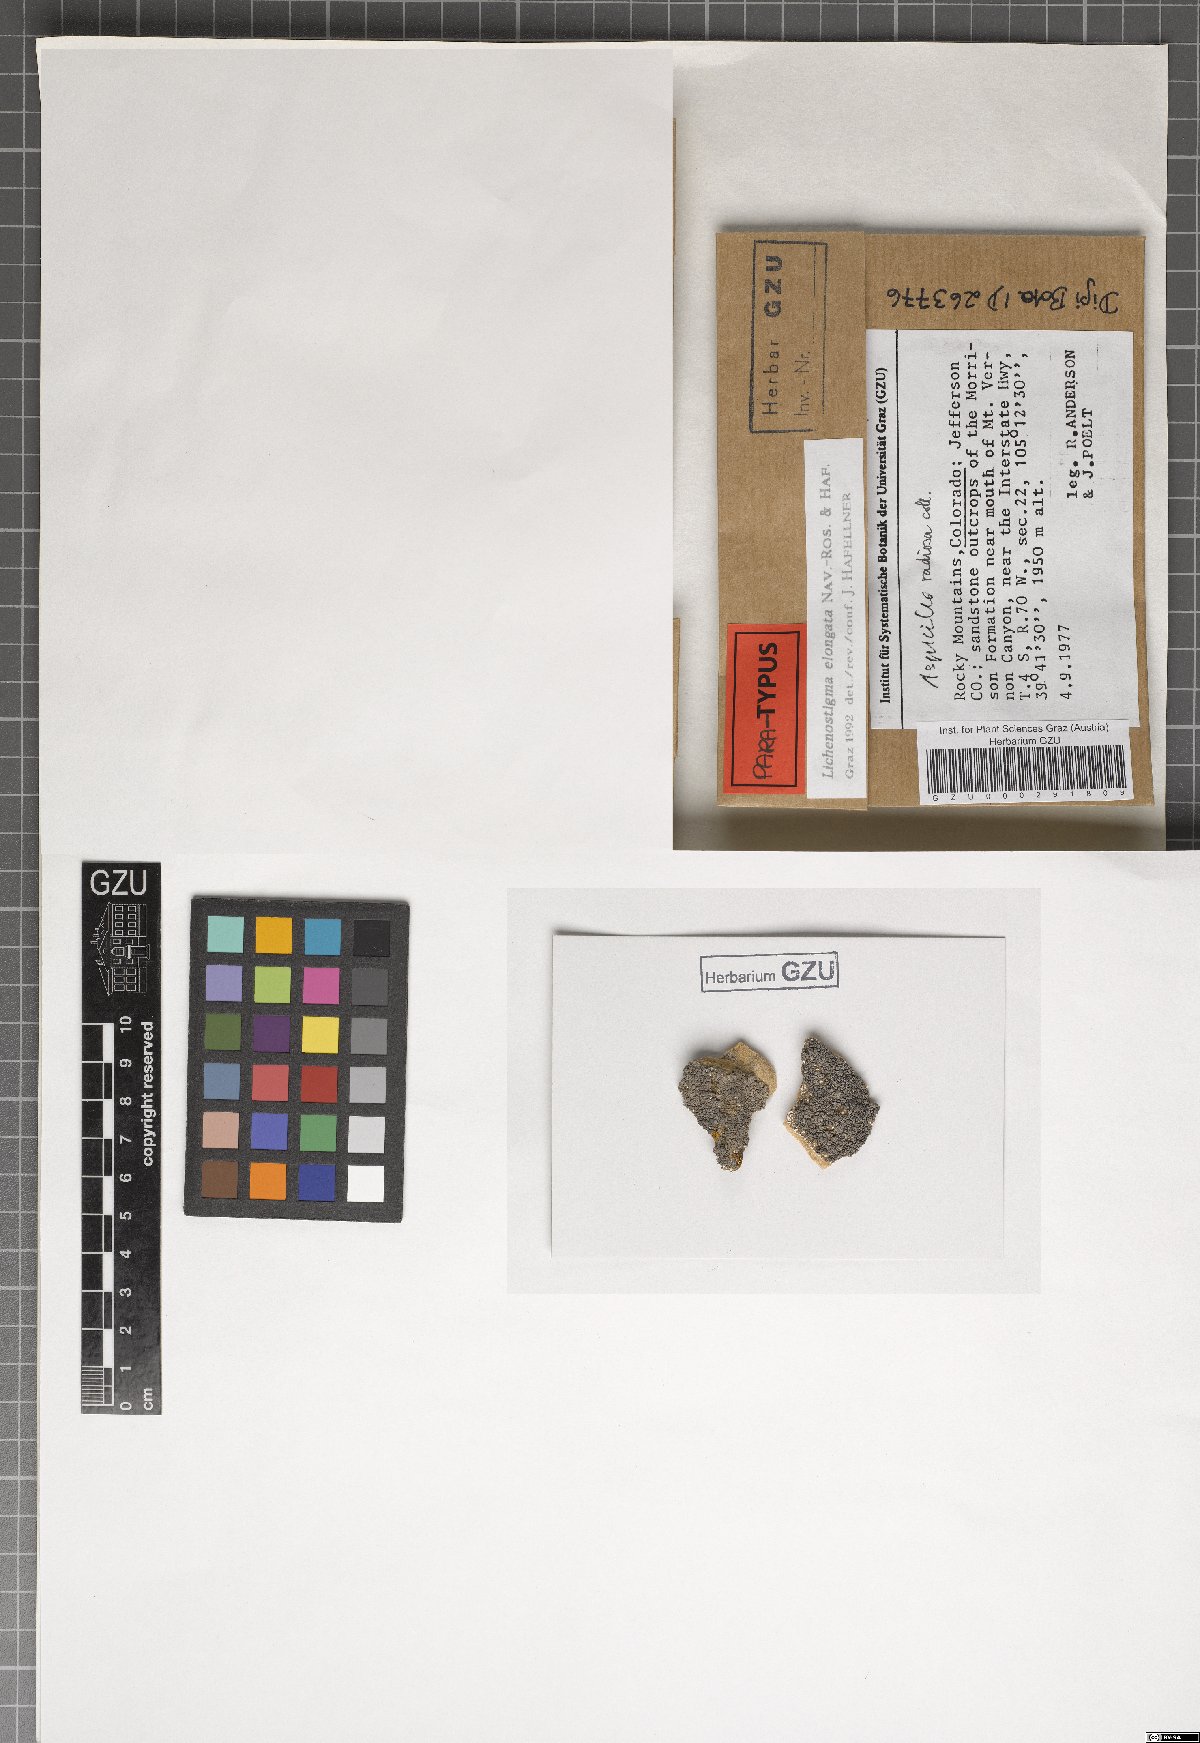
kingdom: Fungi
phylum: Ascomycota
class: Arthoniomycetes
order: Lichenostigmatales
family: Phaeococcomycetaceae
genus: Lichenostigma
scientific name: Lichenostigma elongatum
